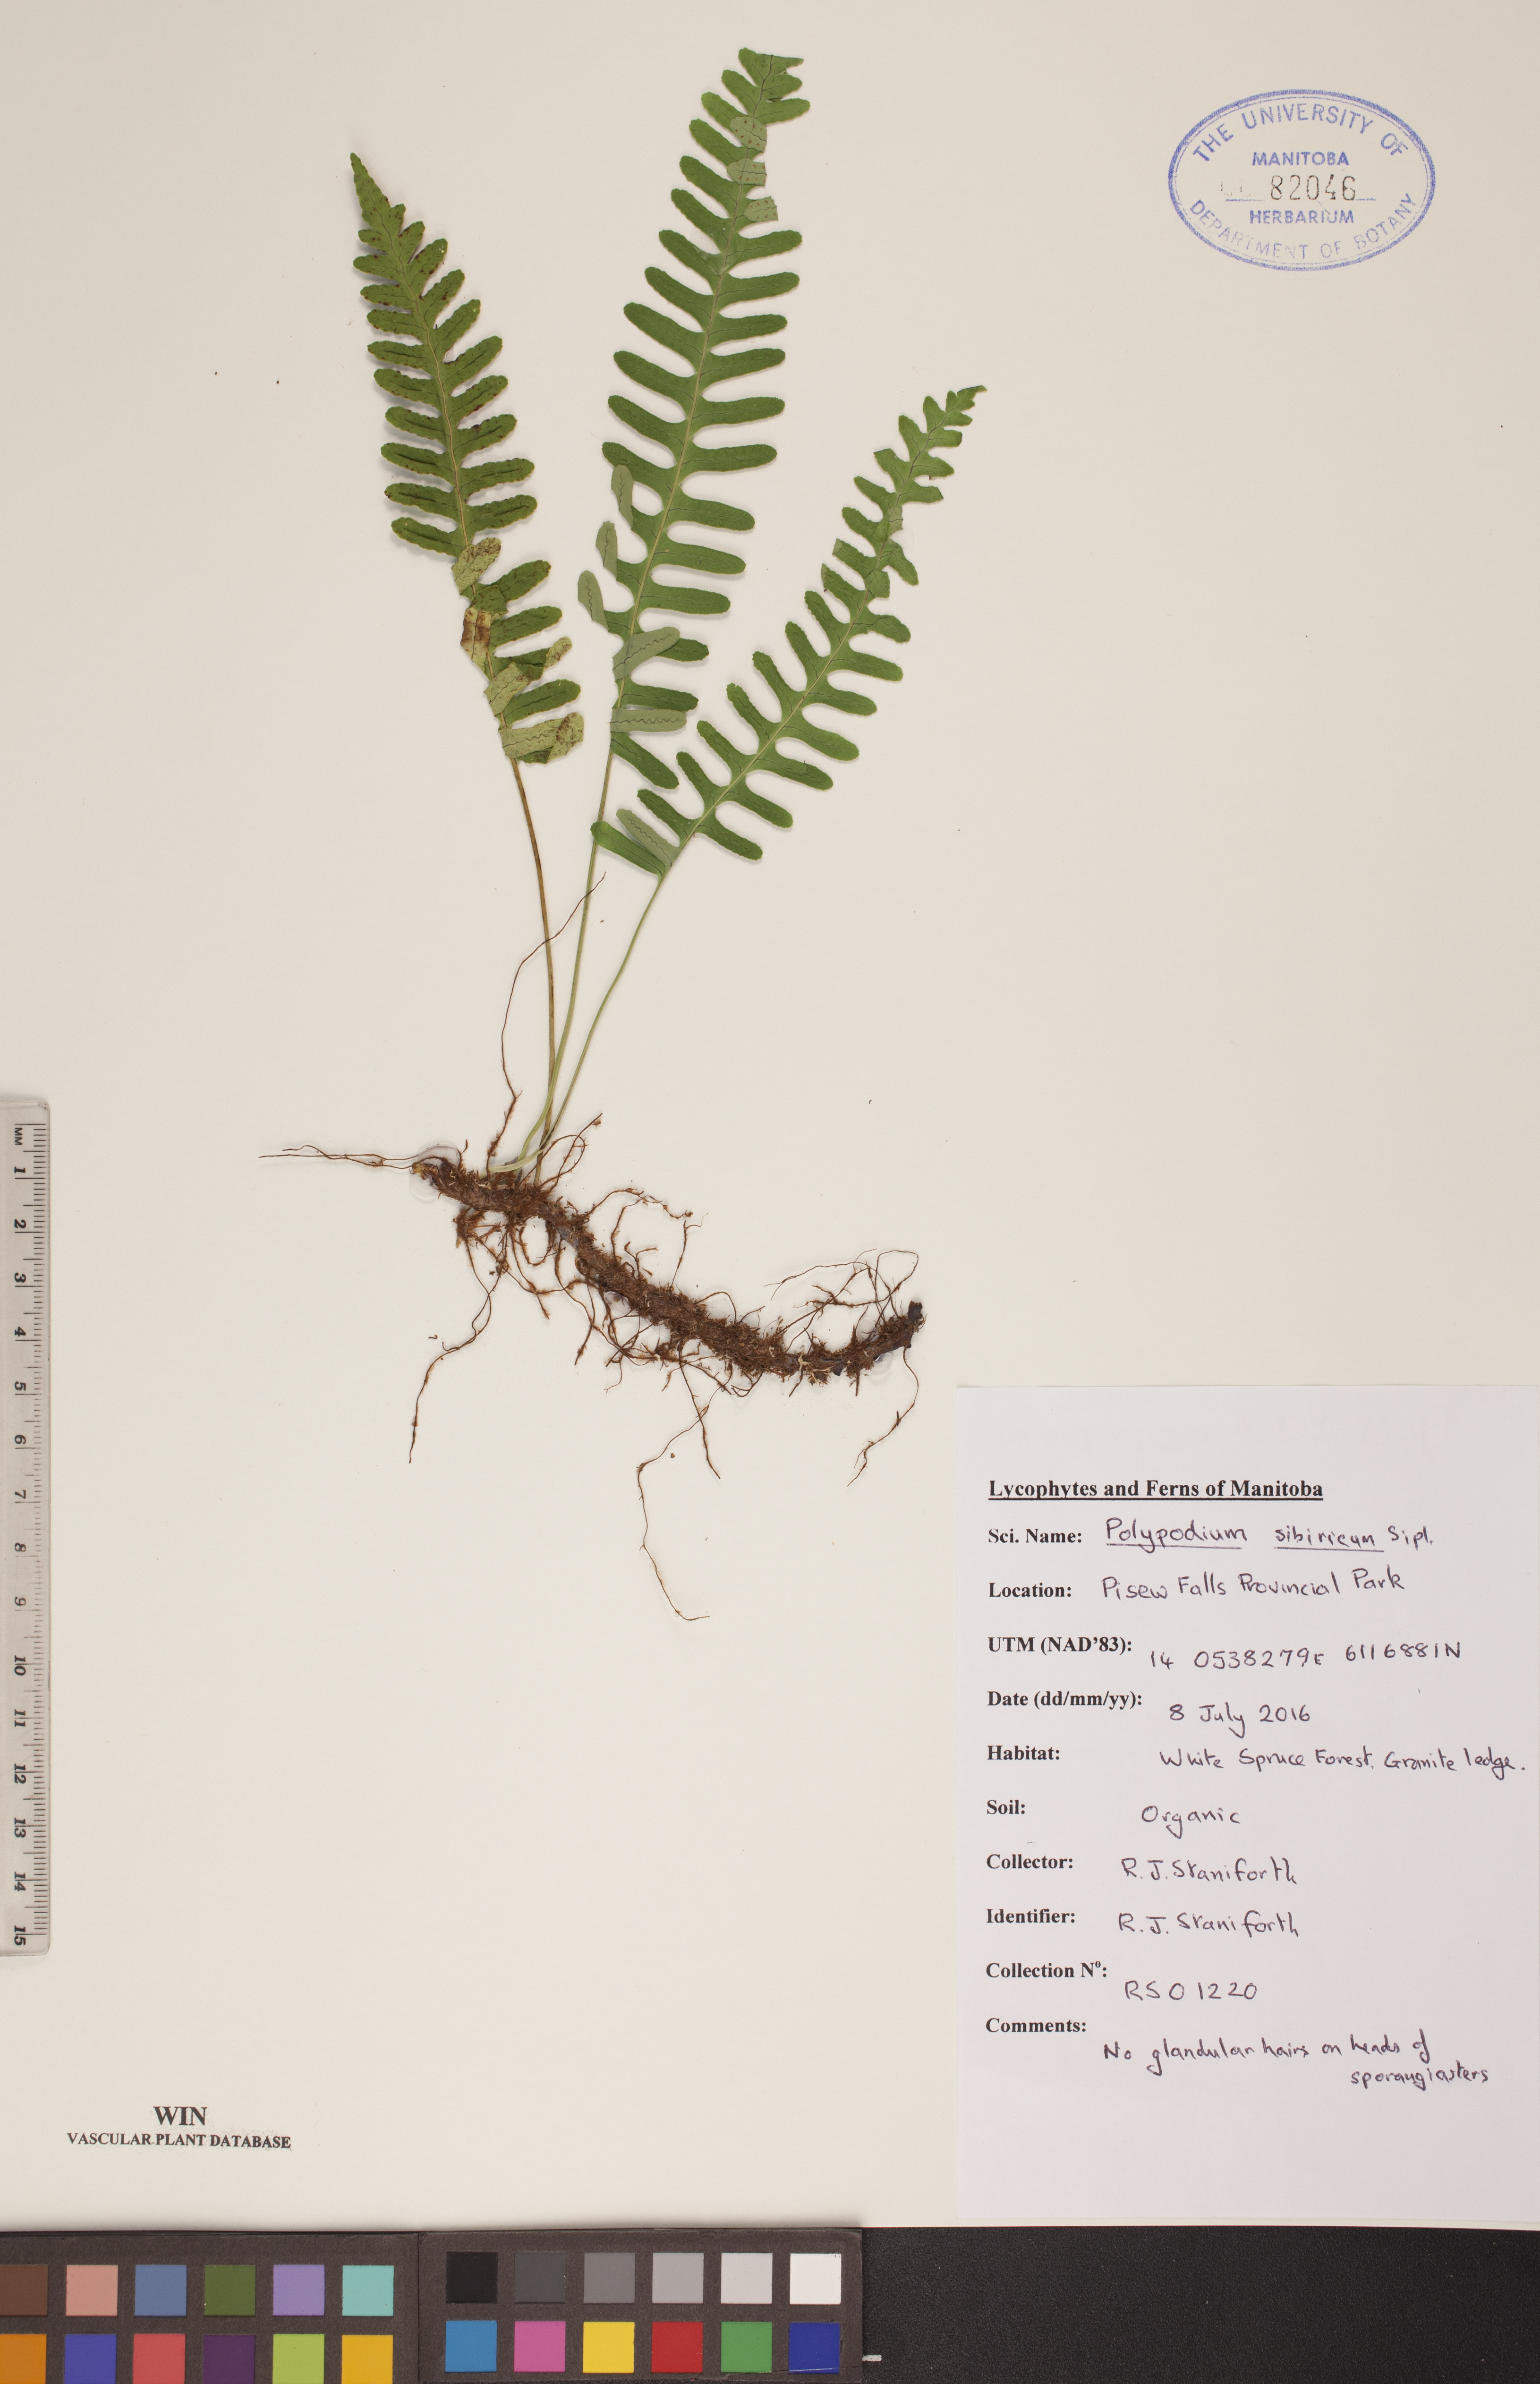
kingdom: Plantae
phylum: Tracheophyta
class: Polypodiopsida
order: Polypodiales
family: Polypodiaceae
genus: Polypodium
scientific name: Polypodium sibiricum
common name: Siberian polypody
